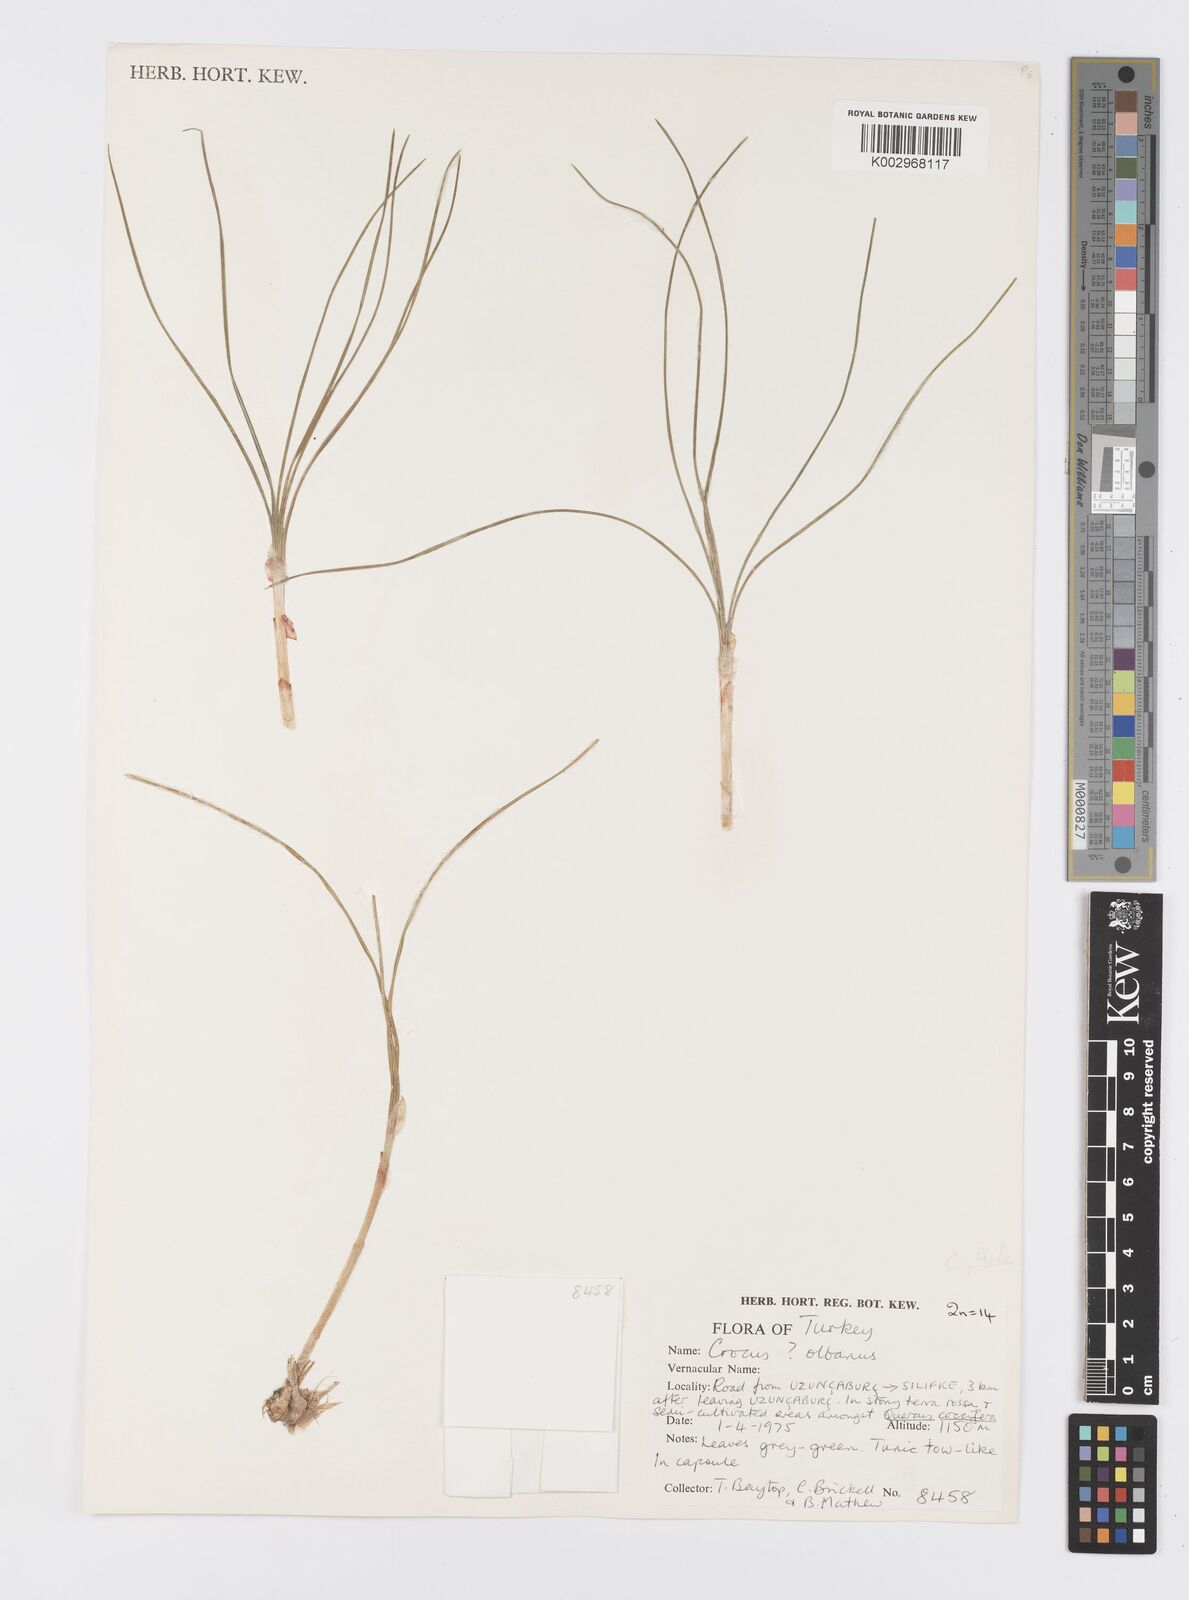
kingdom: Plantae
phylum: Tracheophyta
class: Liliopsida
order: Asparagales
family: Iridaceae
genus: Crocus
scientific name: Crocus
